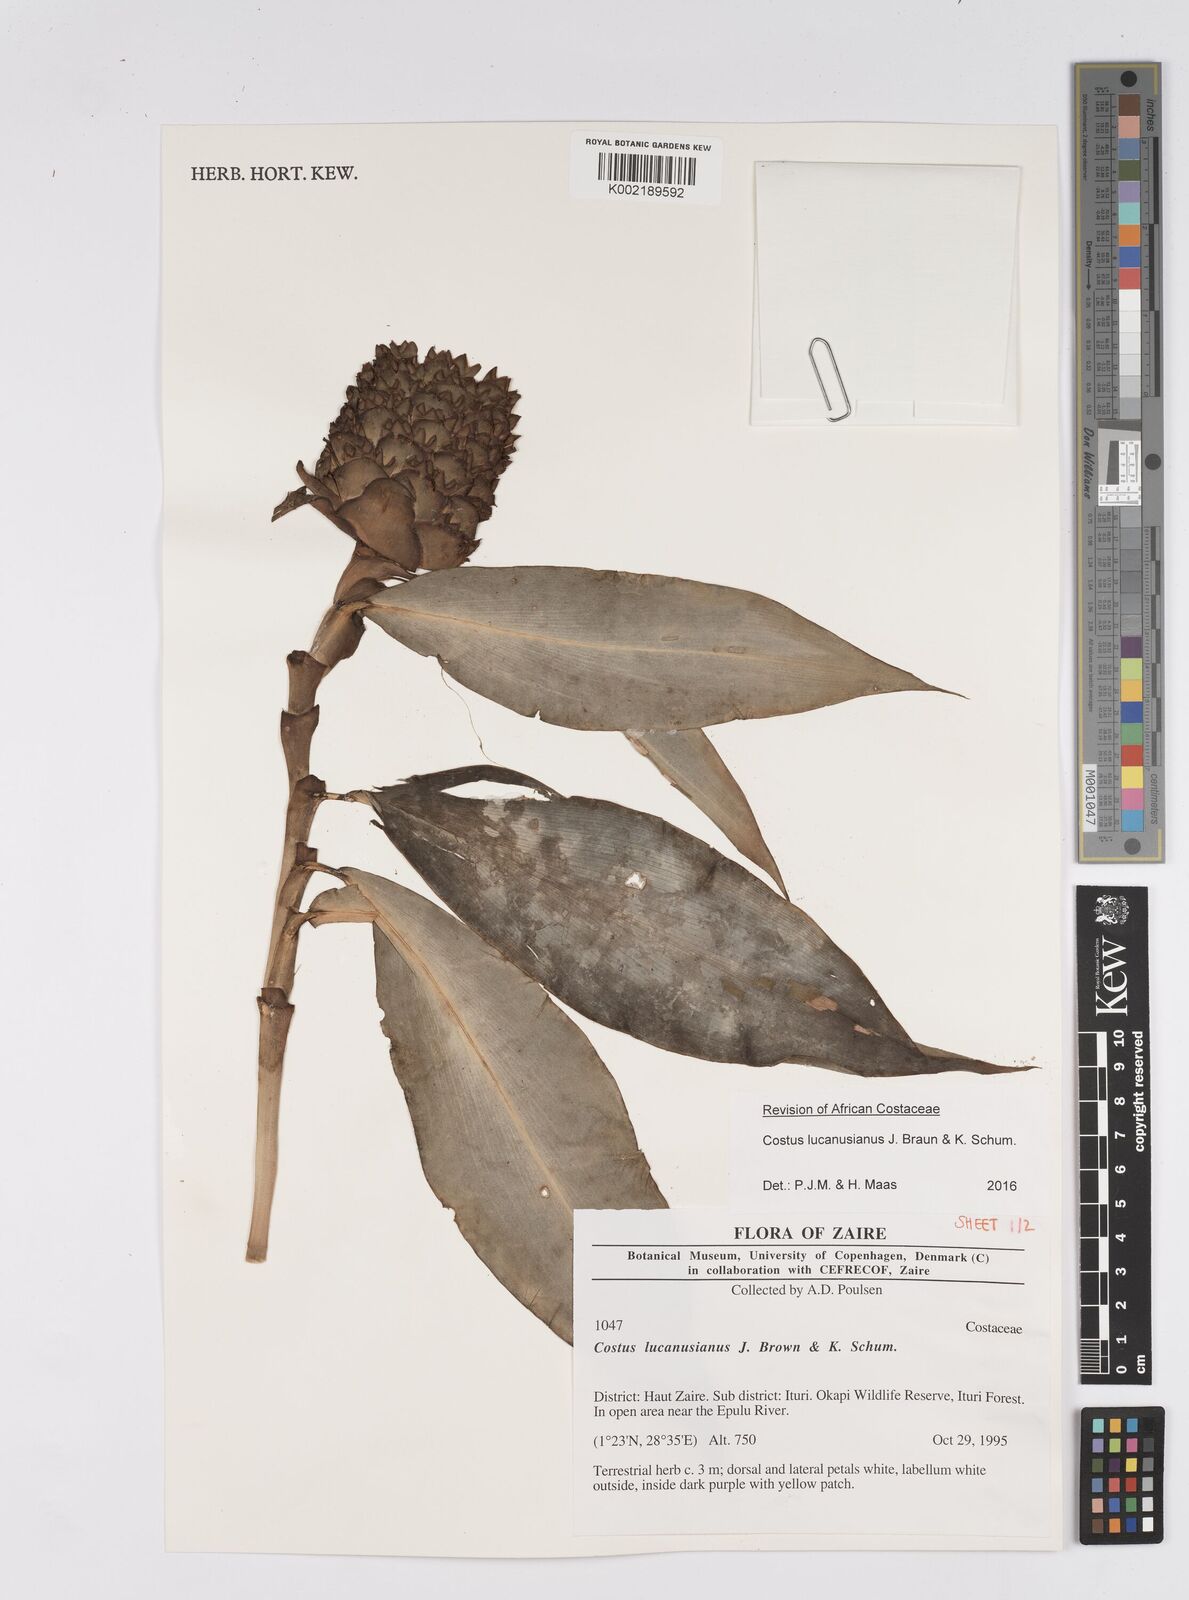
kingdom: Plantae
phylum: Tracheophyta
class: Liliopsida
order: Zingiberales
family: Costaceae
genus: Costus
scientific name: Costus lucanusianus
